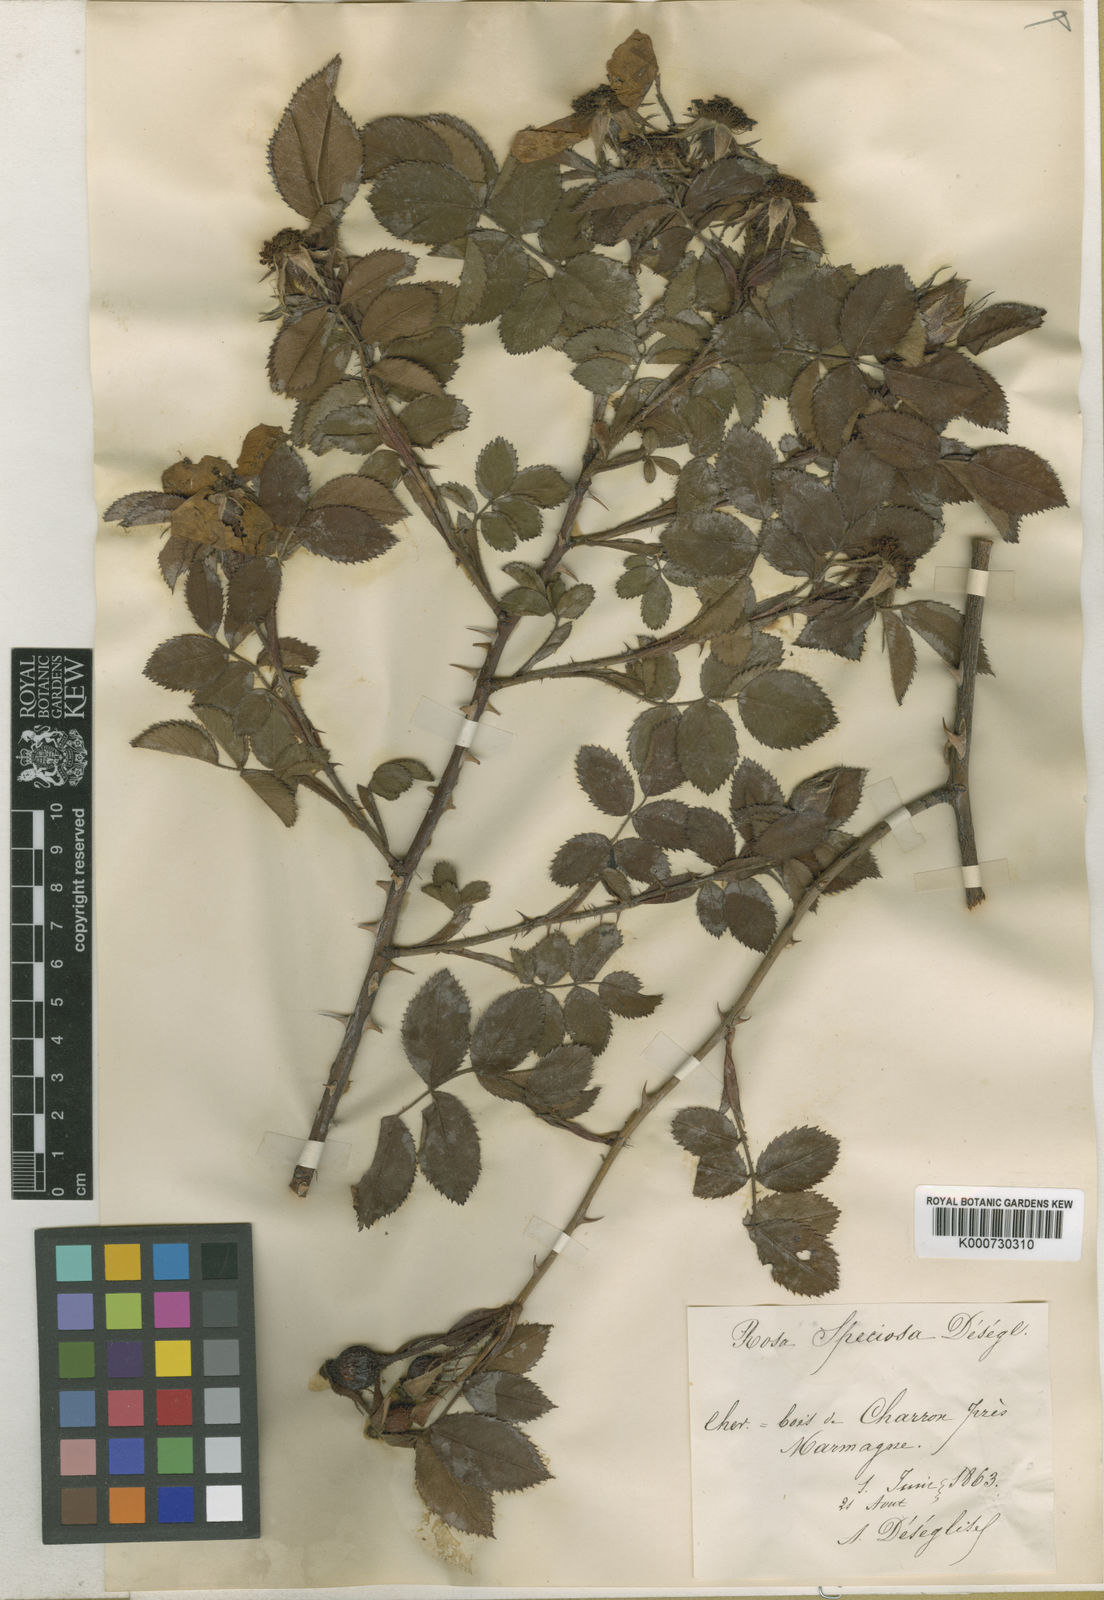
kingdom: Plantae
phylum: Tracheophyta
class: Magnoliopsida
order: Rosales
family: Rosaceae
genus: Rosa
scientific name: Rosa marginata
